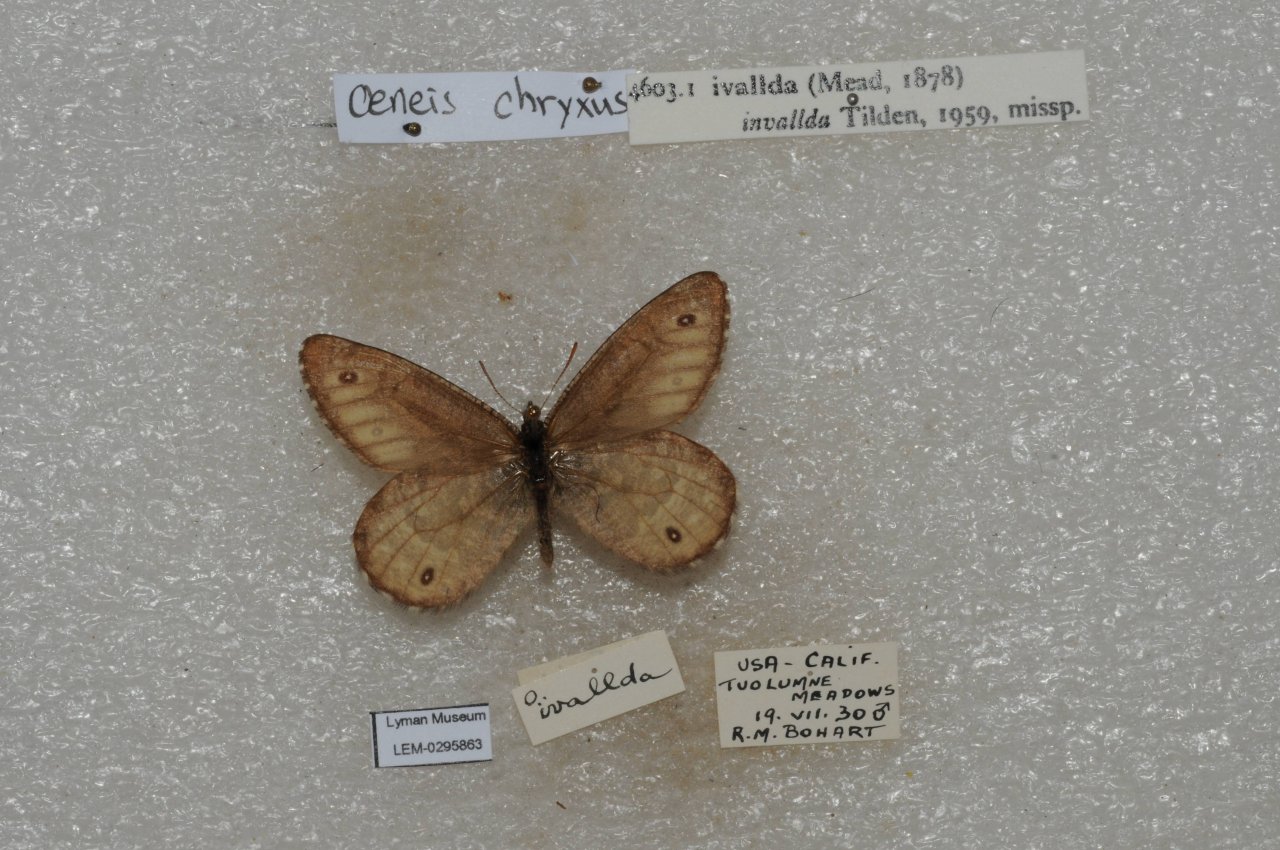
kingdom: Animalia
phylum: Arthropoda
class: Insecta
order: Lepidoptera
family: Nymphalidae
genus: Oeneis
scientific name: Oeneis chryxus
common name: Chryxus Arctic
